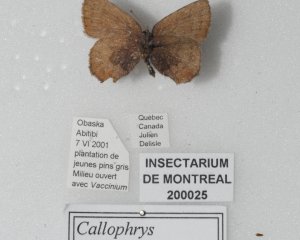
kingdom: Animalia
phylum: Arthropoda
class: Insecta
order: Lepidoptera
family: Lycaenidae
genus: Incisalia
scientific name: Incisalia irioides
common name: Brown Elfin
